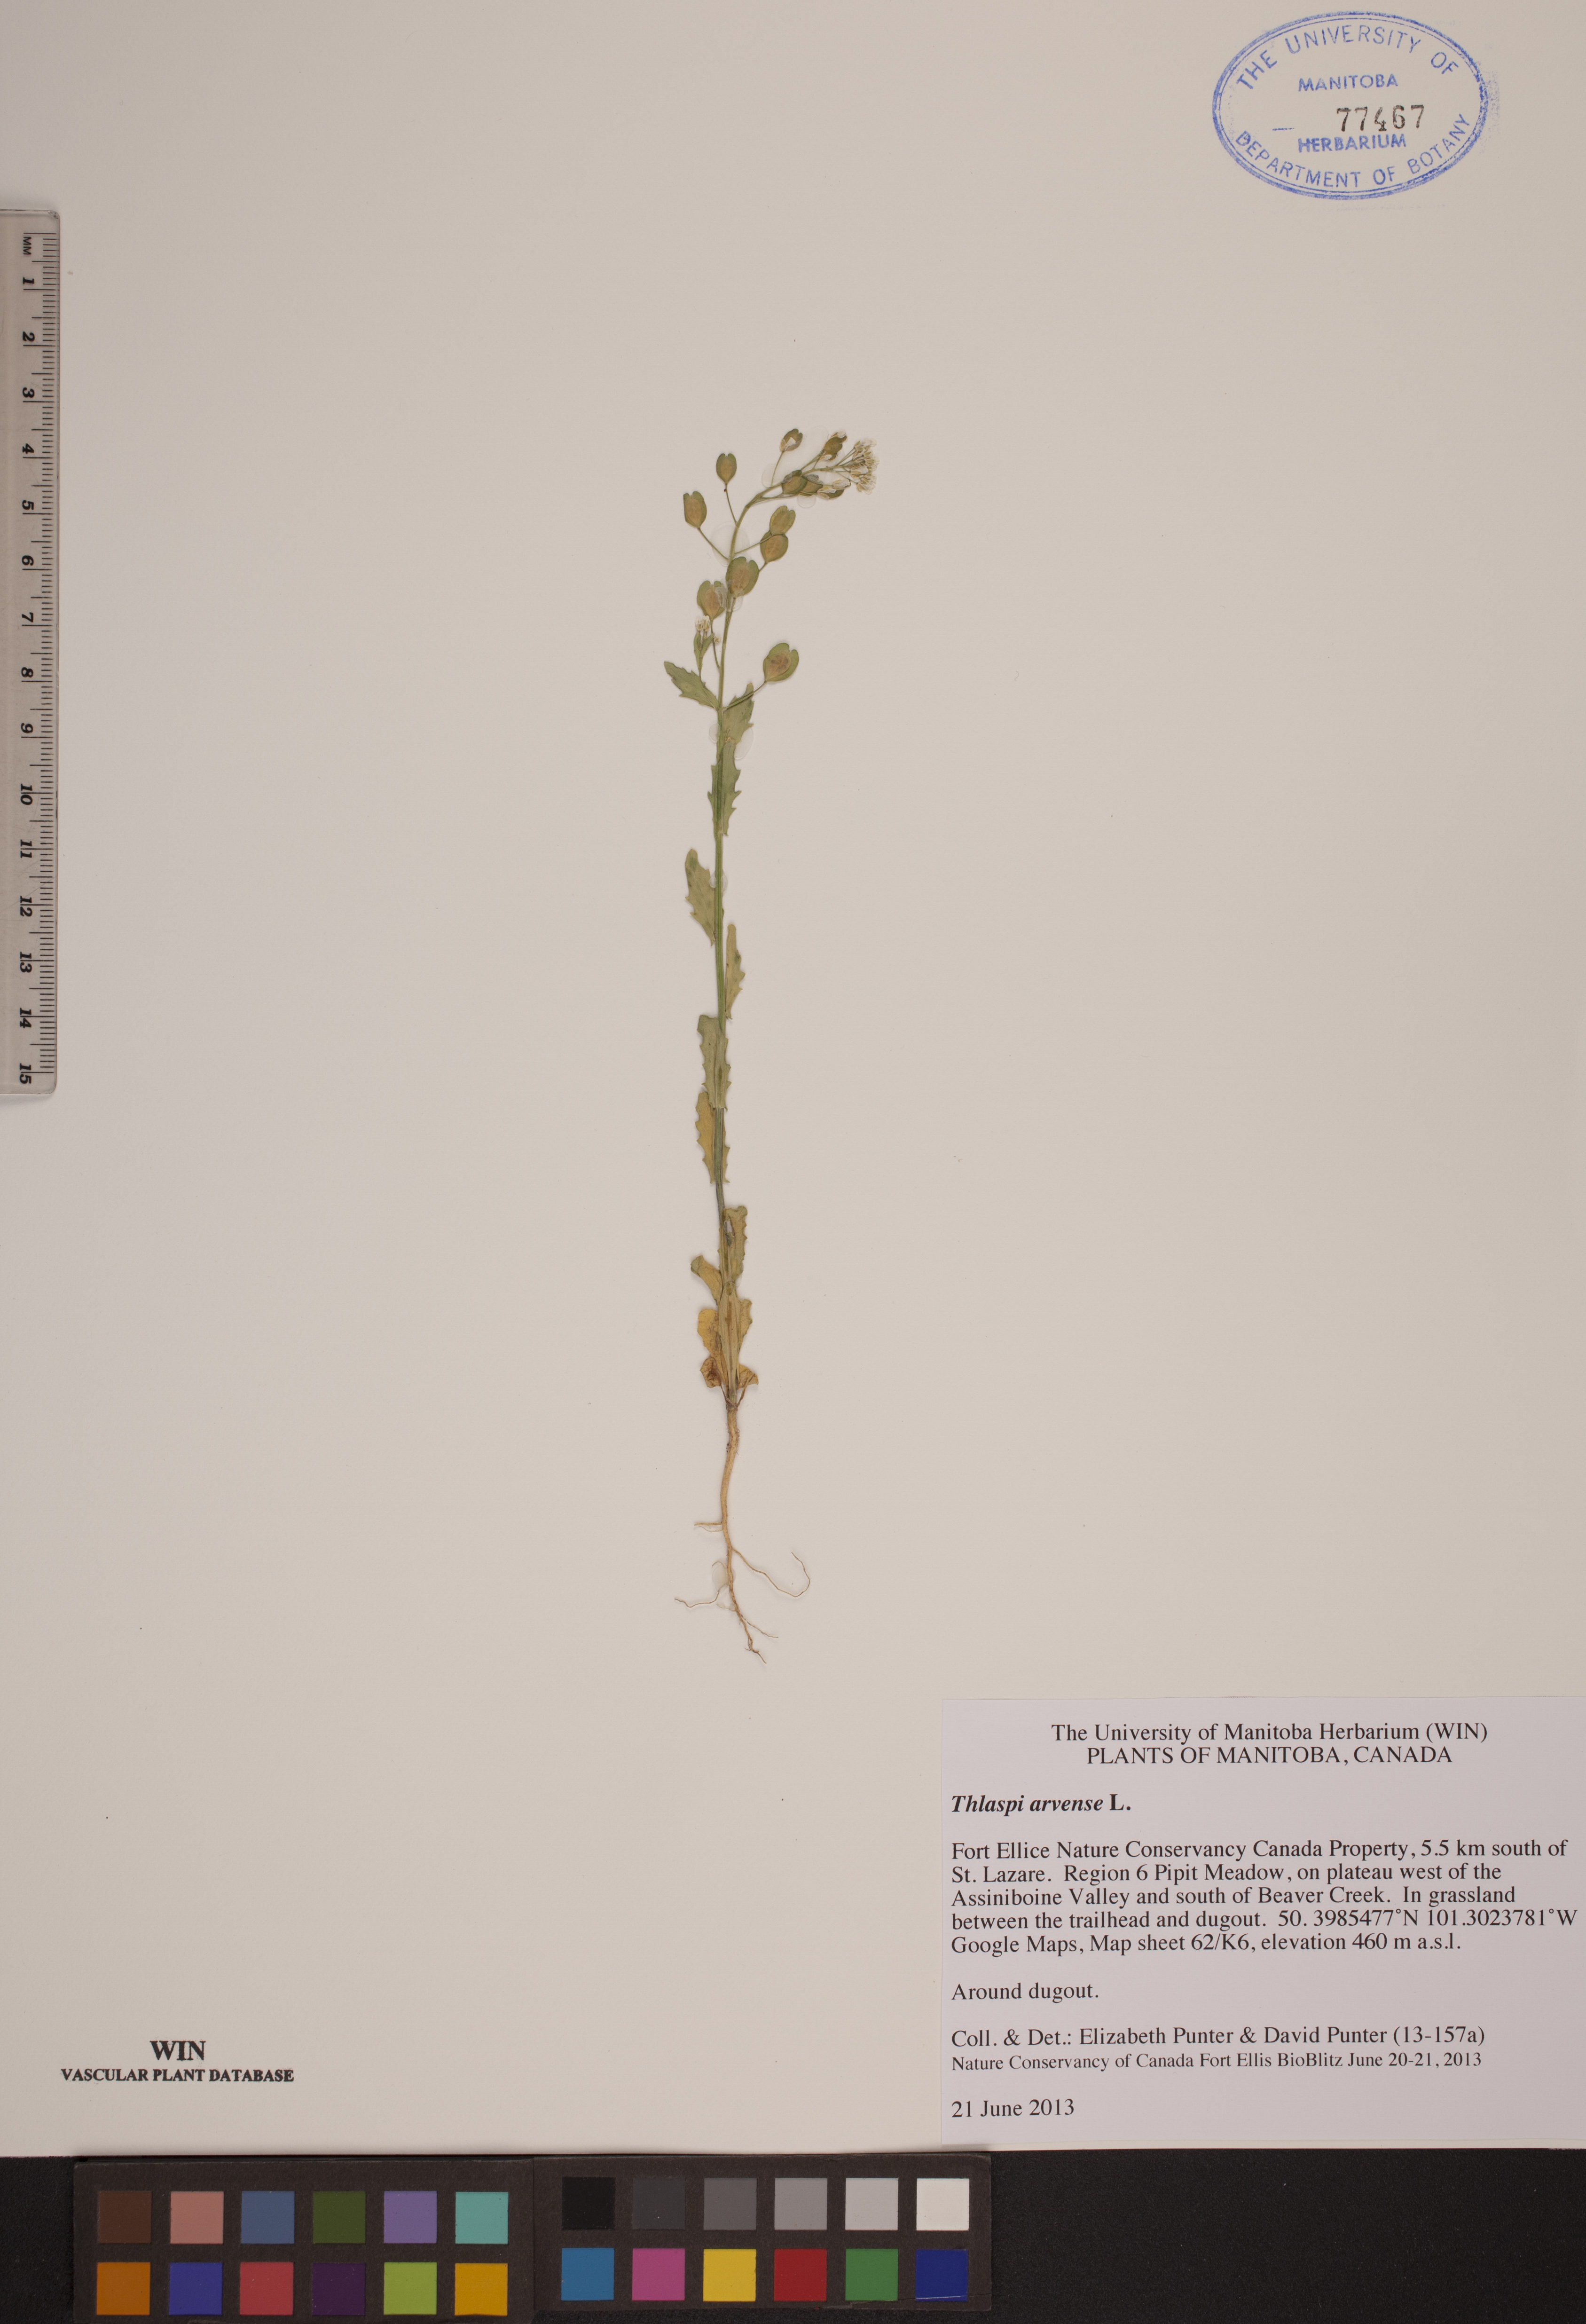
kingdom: Plantae
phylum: Tracheophyta
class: Magnoliopsida
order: Brassicales
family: Brassicaceae
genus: Thlaspi
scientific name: Thlaspi arvense
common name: Field pennycress
